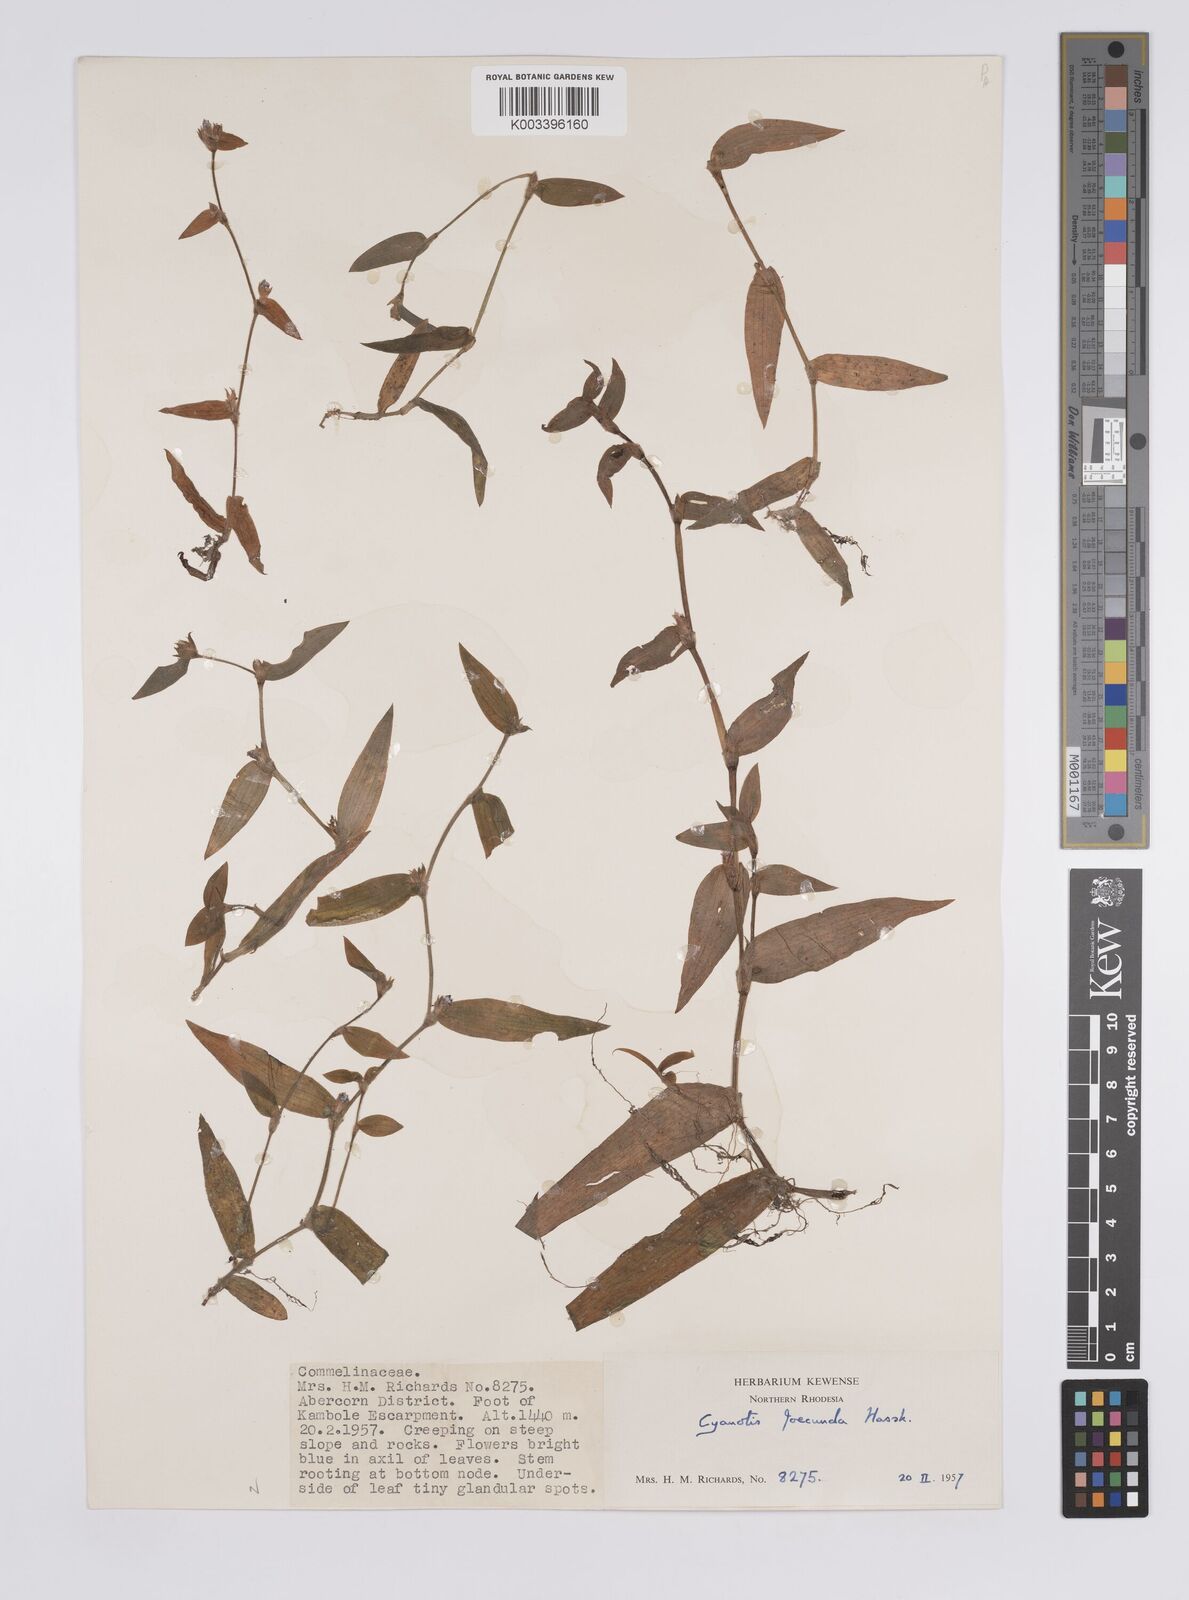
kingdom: Plantae
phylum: Tracheophyta
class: Liliopsida
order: Commelinales
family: Commelinaceae
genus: Cyanotis
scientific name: Cyanotis foecunda
